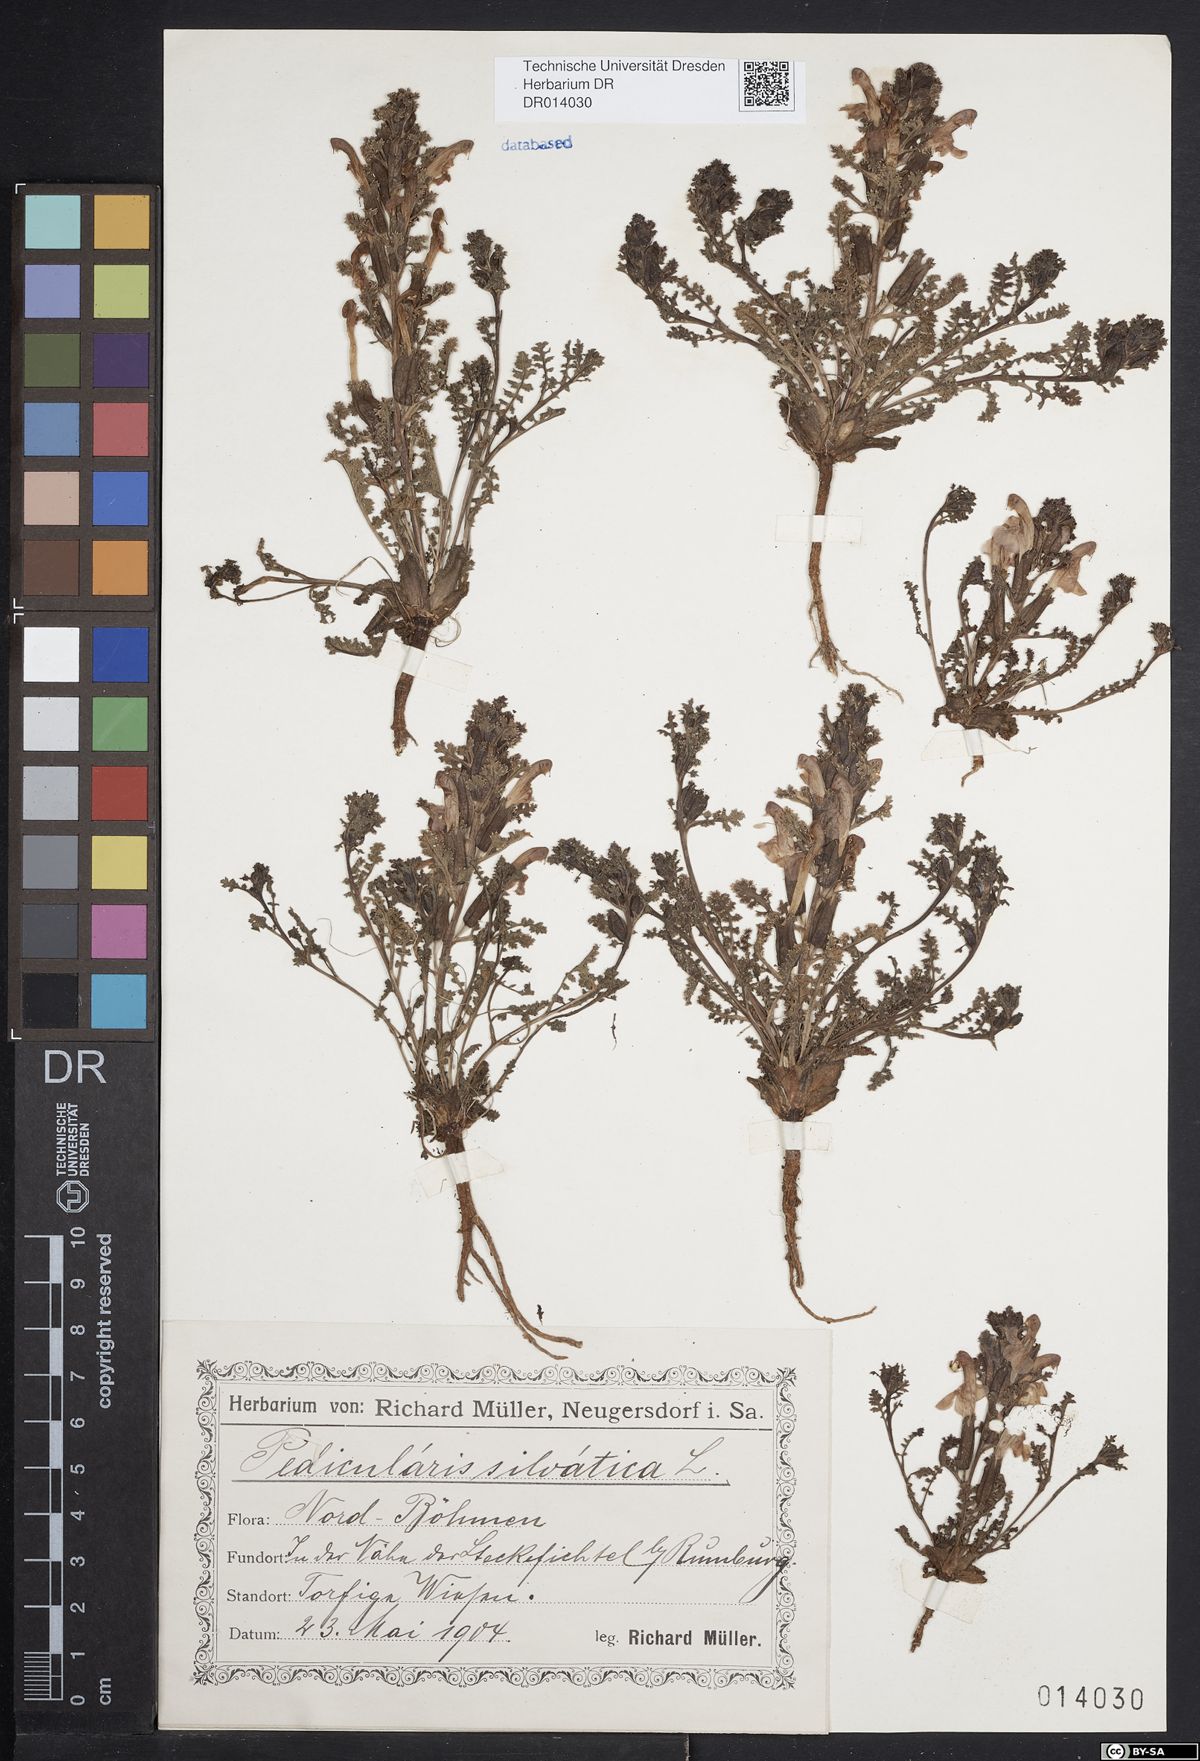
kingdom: Plantae
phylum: Tracheophyta
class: Magnoliopsida
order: Lamiales
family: Orobanchaceae
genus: Pedicularis
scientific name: Pedicularis sylvatica
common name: Lousewort
